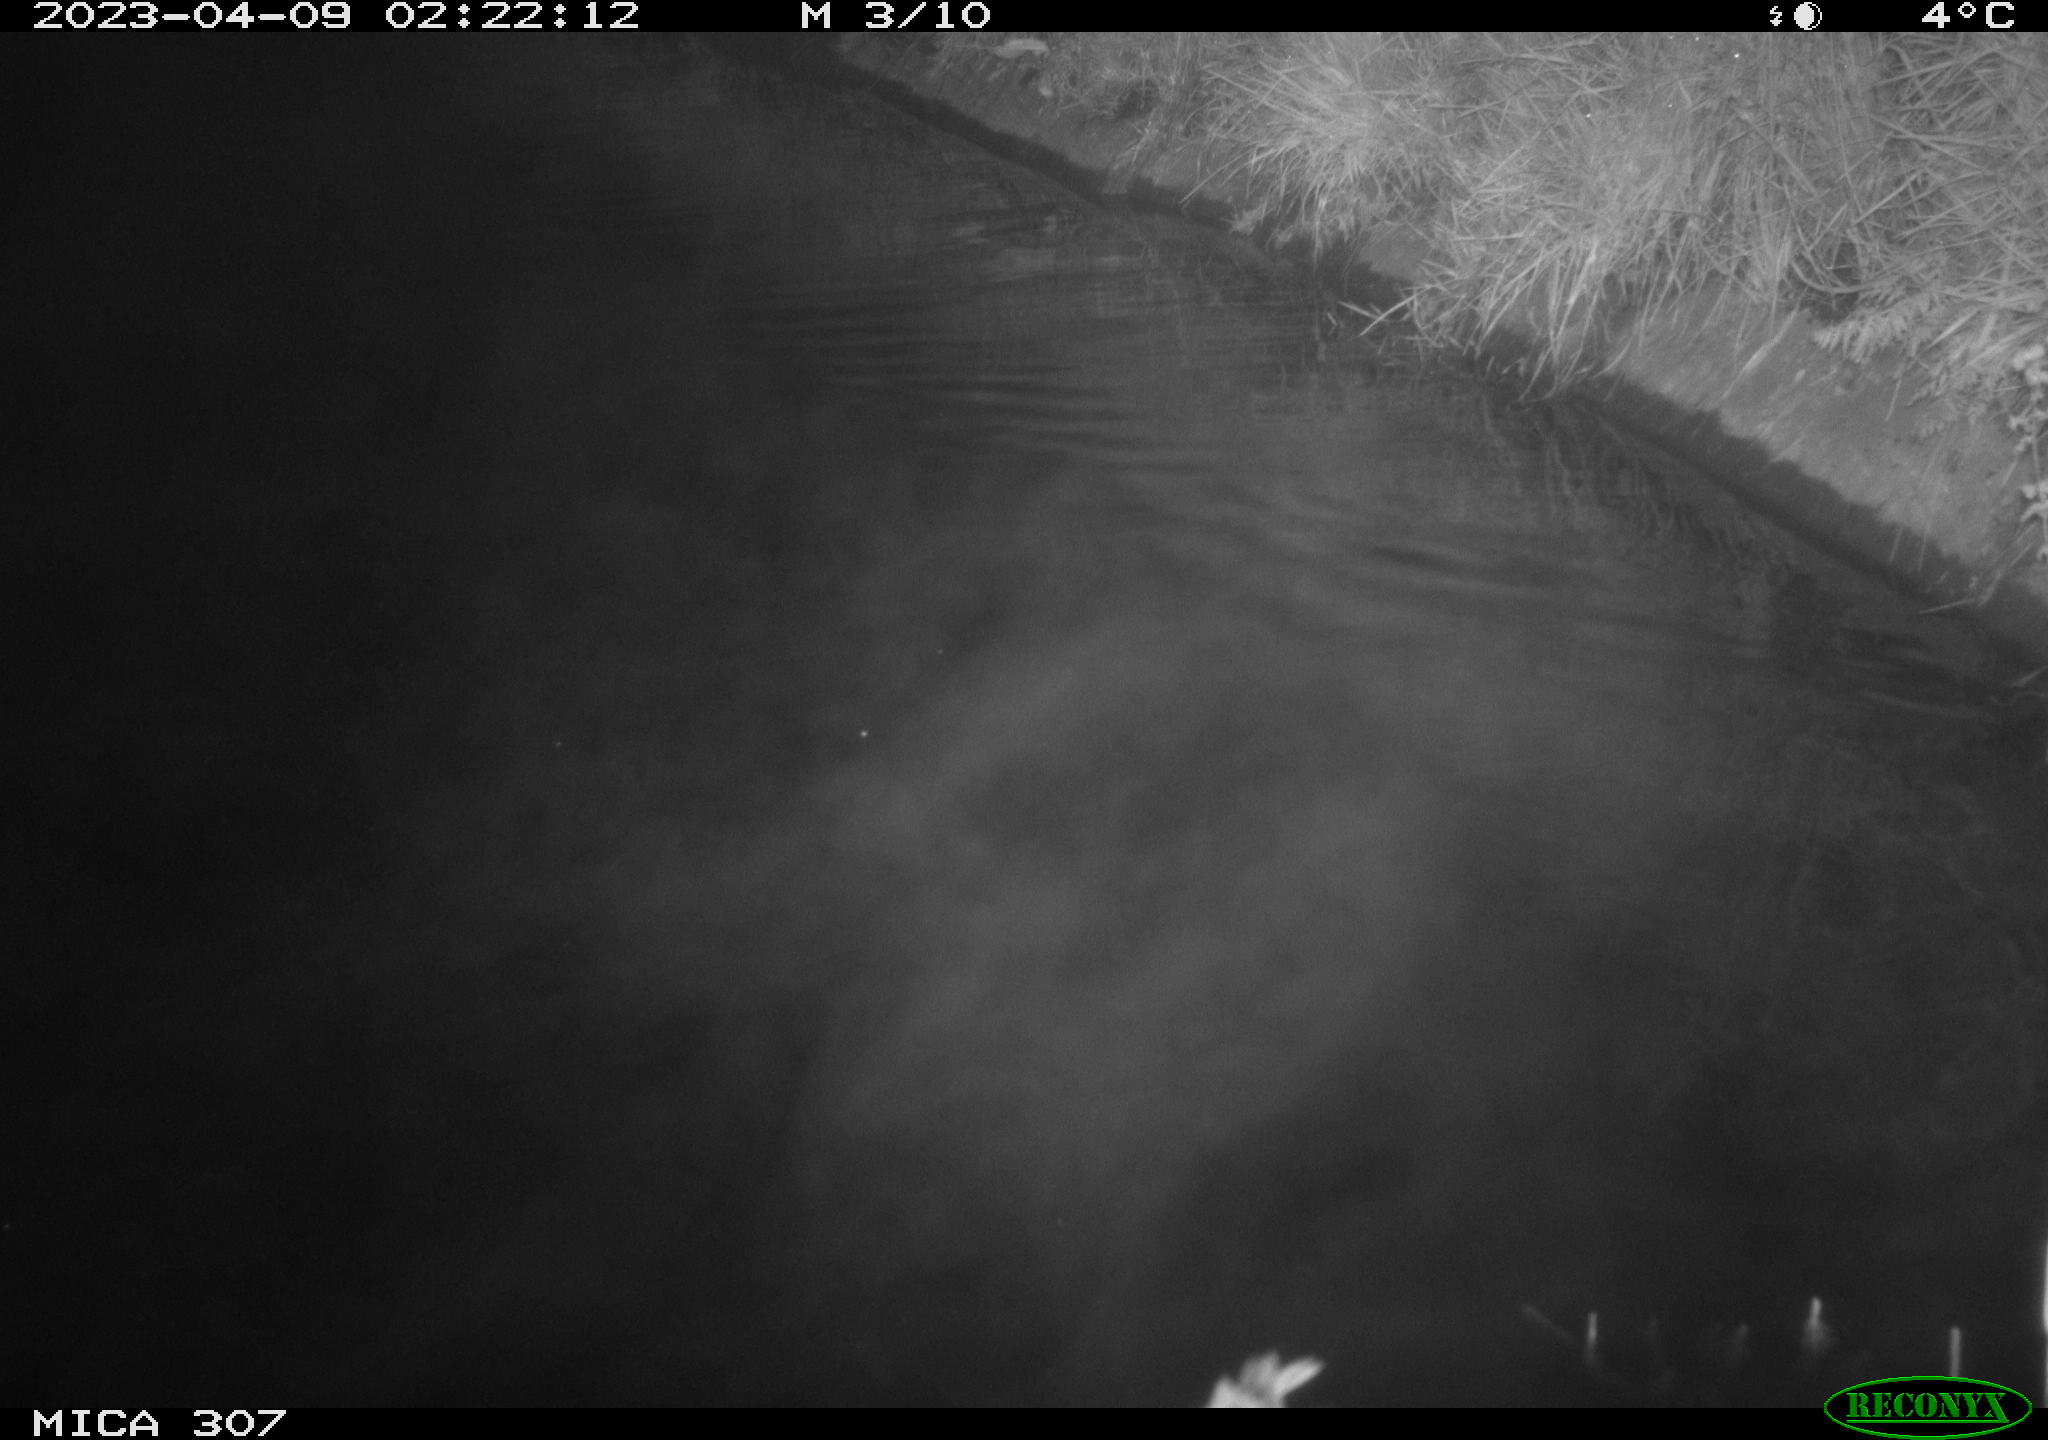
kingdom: Animalia
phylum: Chordata
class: Aves
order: Anseriformes
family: Anatidae
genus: Anas
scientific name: Anas
